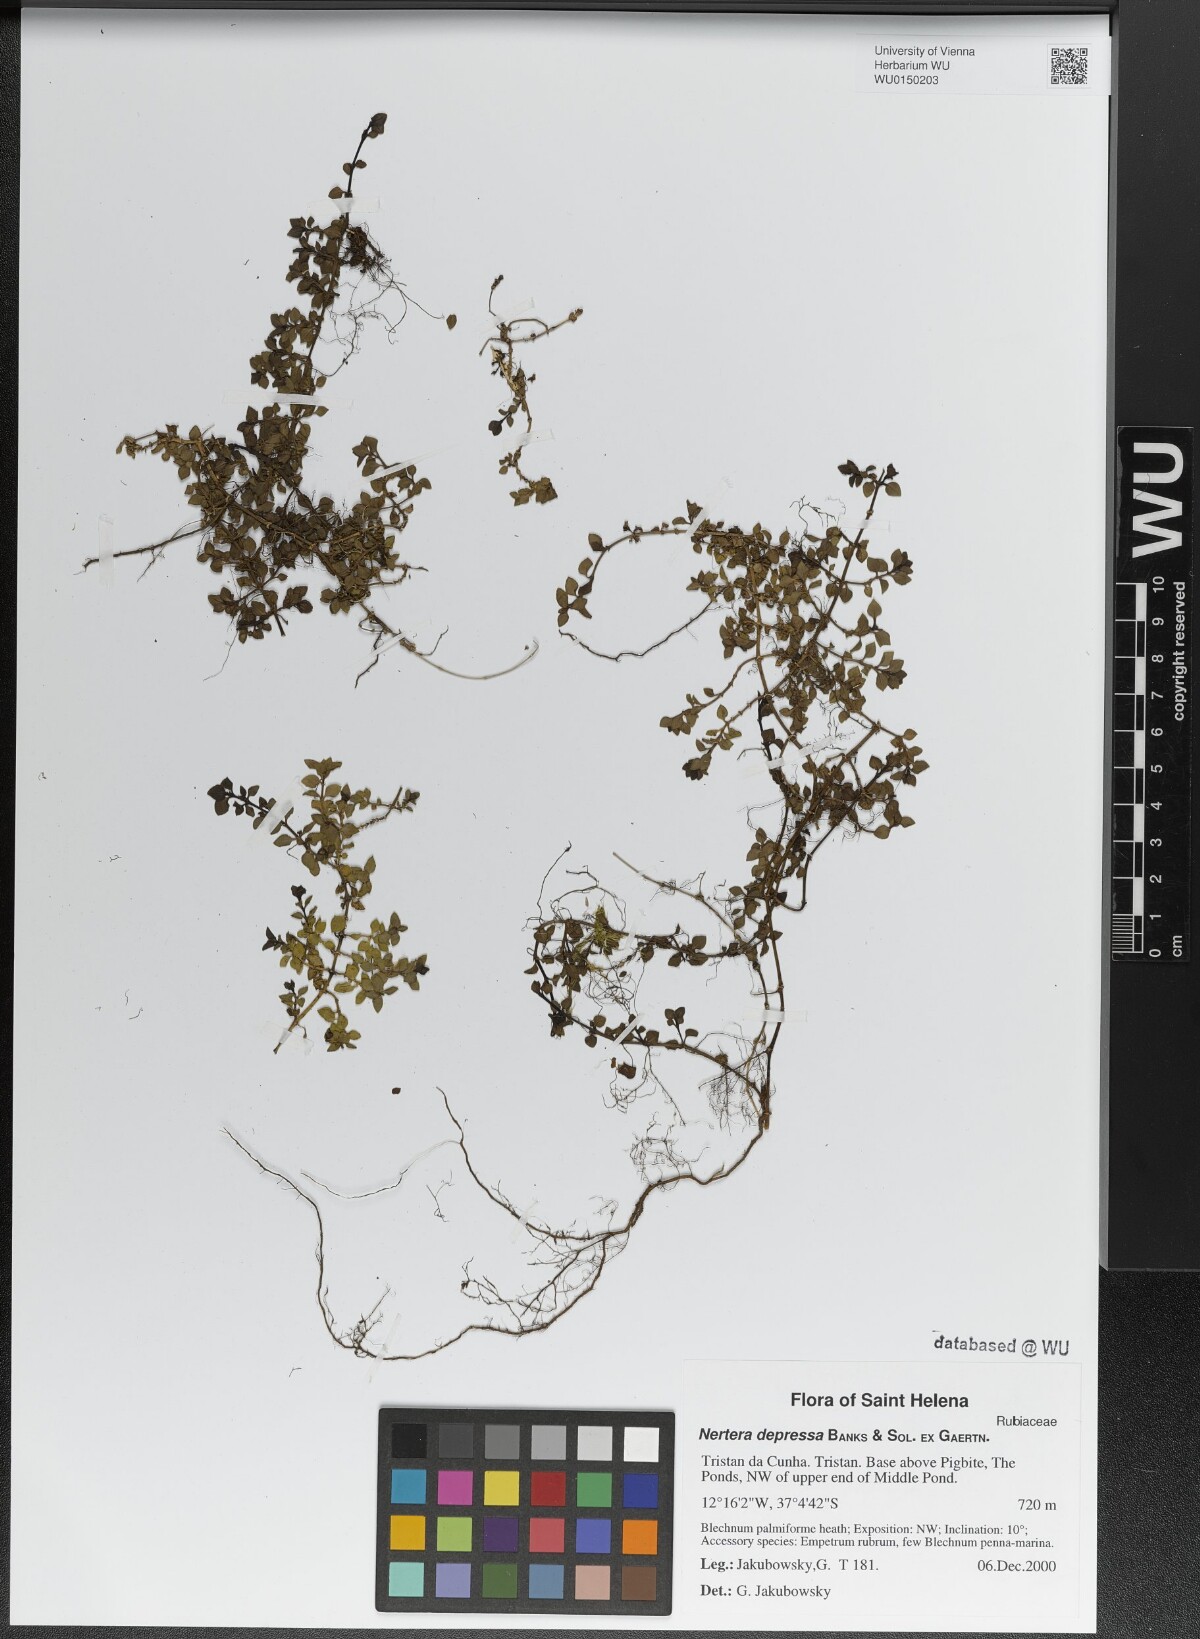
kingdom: Plantae
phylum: Tracheophyta
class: Magnoliopsida
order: Gentianales
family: Rubiaceae
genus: Nertera
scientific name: Nertera granadensis
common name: Beadplant
